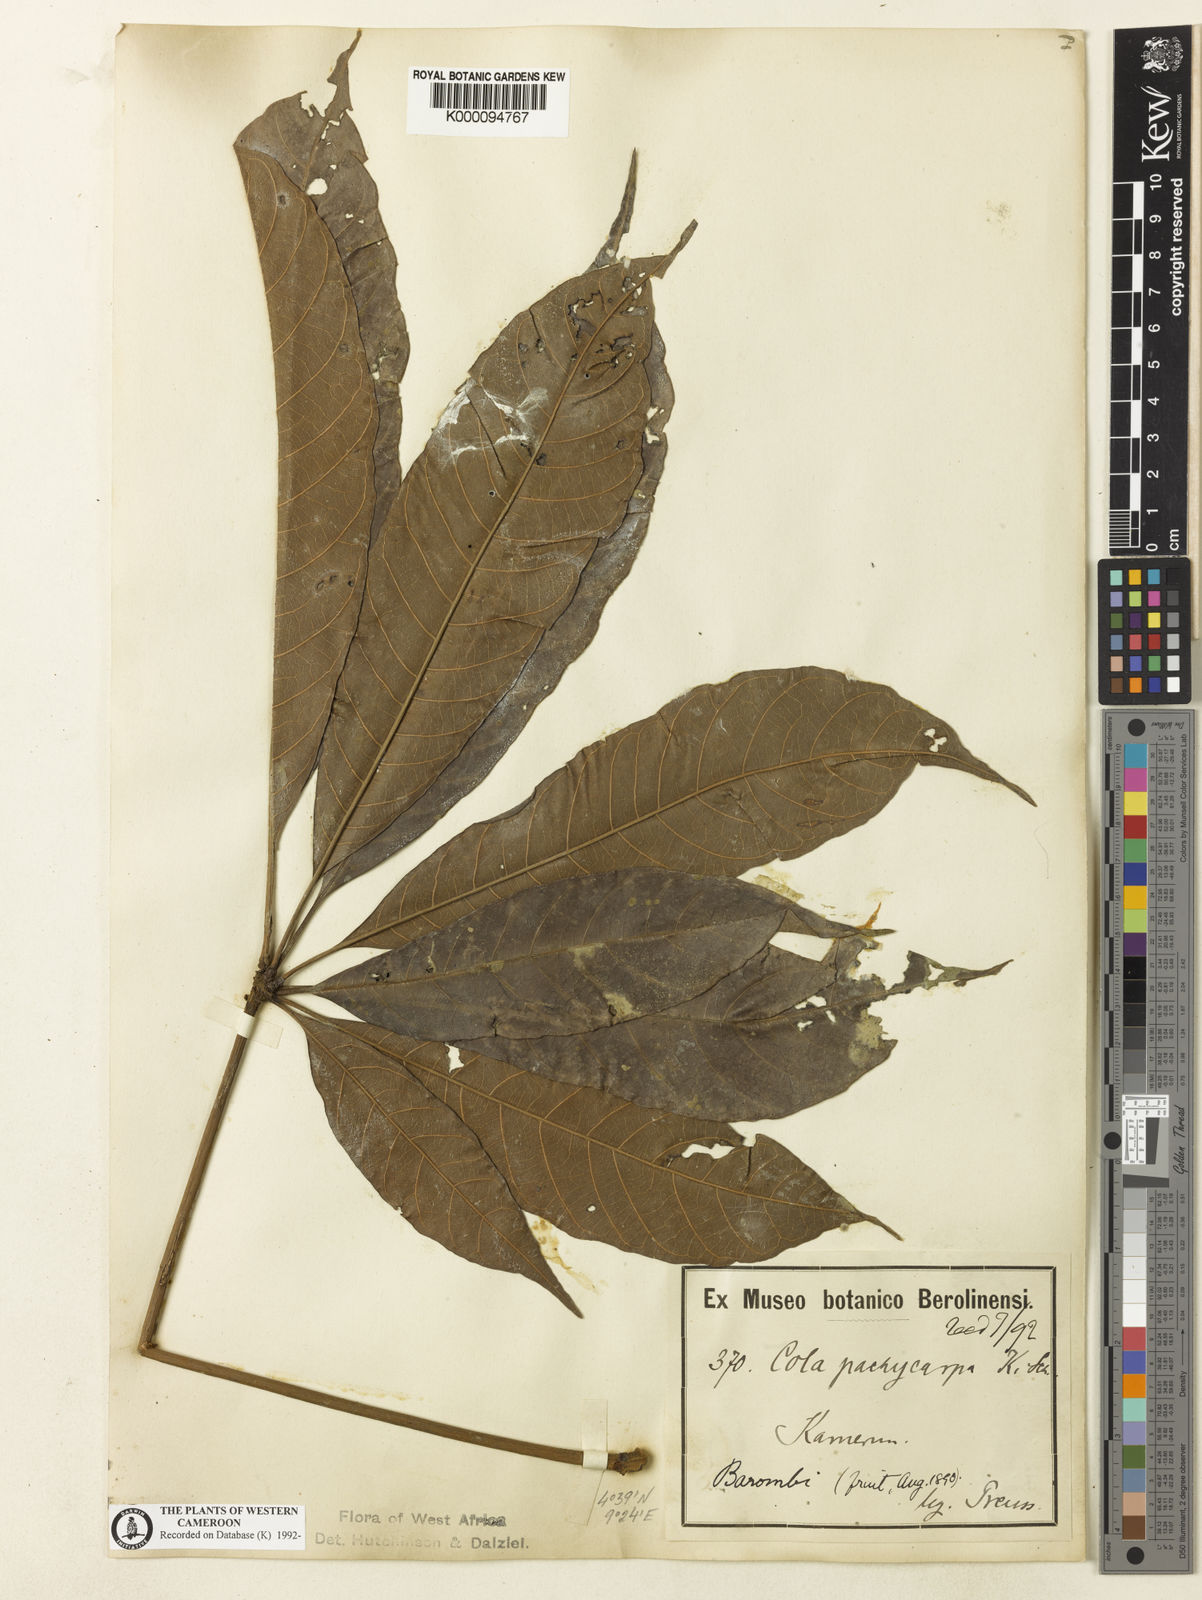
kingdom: Plantae
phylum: Tracheophyta
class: Magnoliopsida
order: Malvales
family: Malvaceae
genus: Cola
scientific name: Cola pachycarpa
